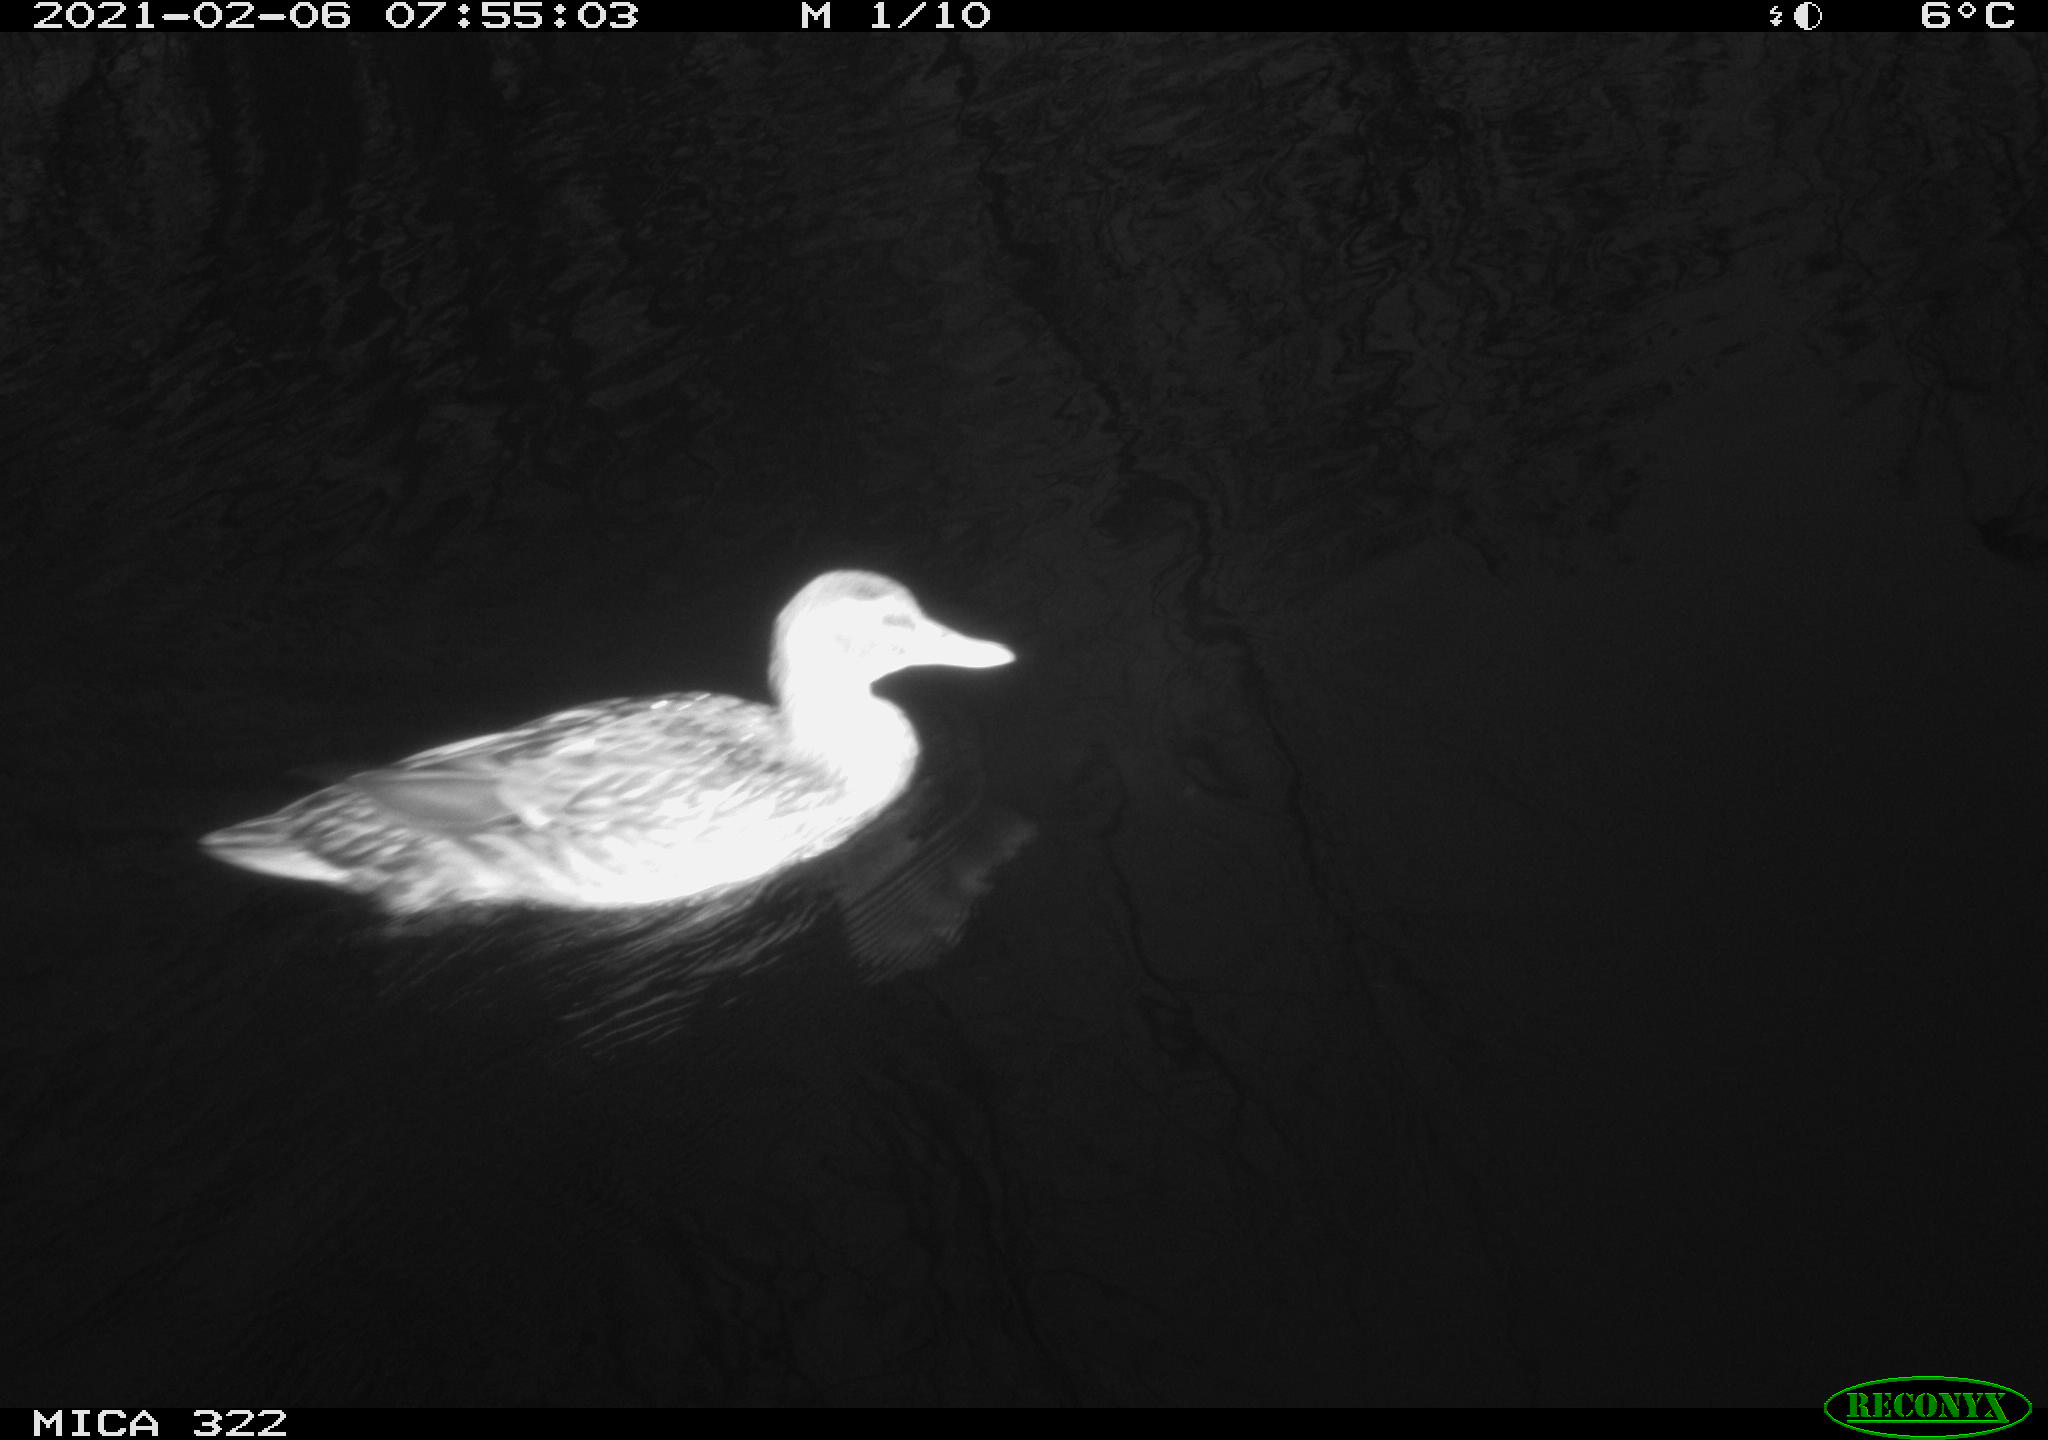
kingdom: Animalia
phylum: Chordata
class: Aves
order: Anseriformes
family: Anatidae
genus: Anas
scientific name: Anas platyrhynchos
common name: Mallard
